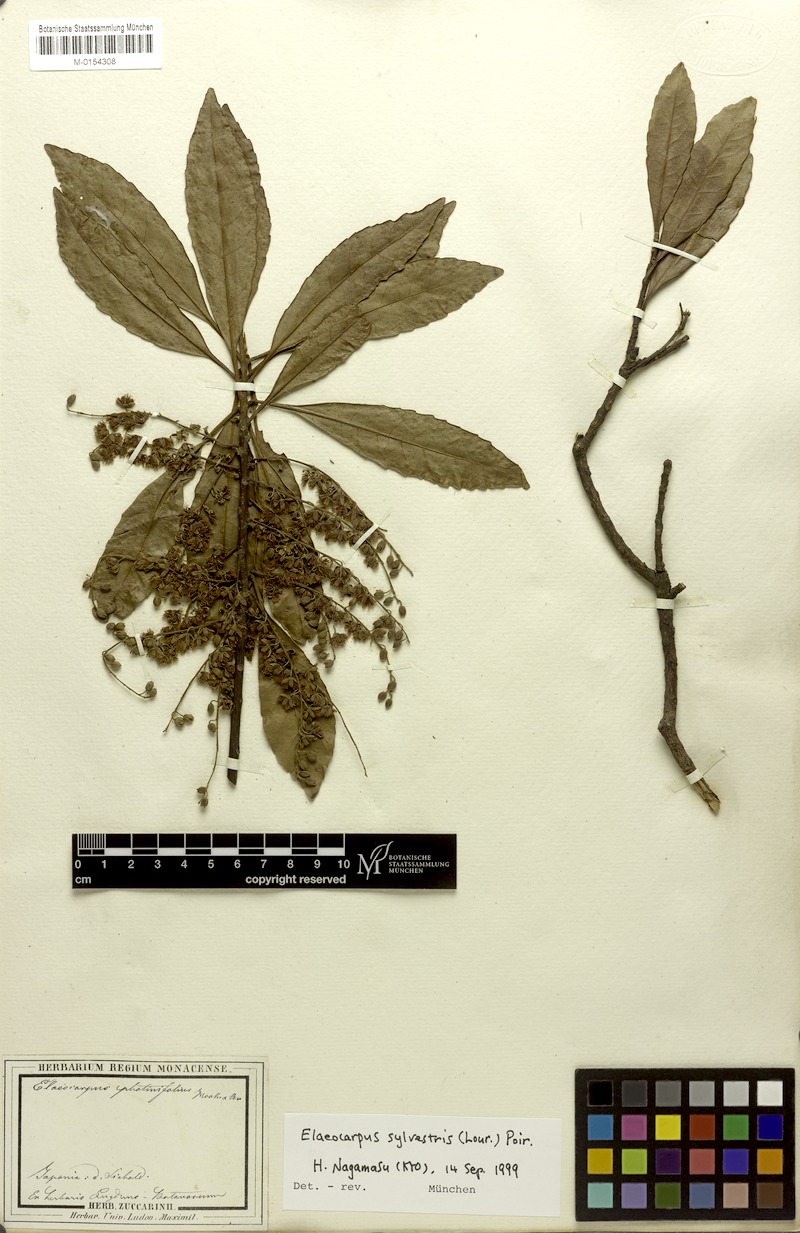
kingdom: Plantae
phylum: Tracheophyta
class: Magnoliopsida
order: Oxalidales
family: Elaeocarpaceae
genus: Elaeocarpus
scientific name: Elaeocarpus sylvestris
